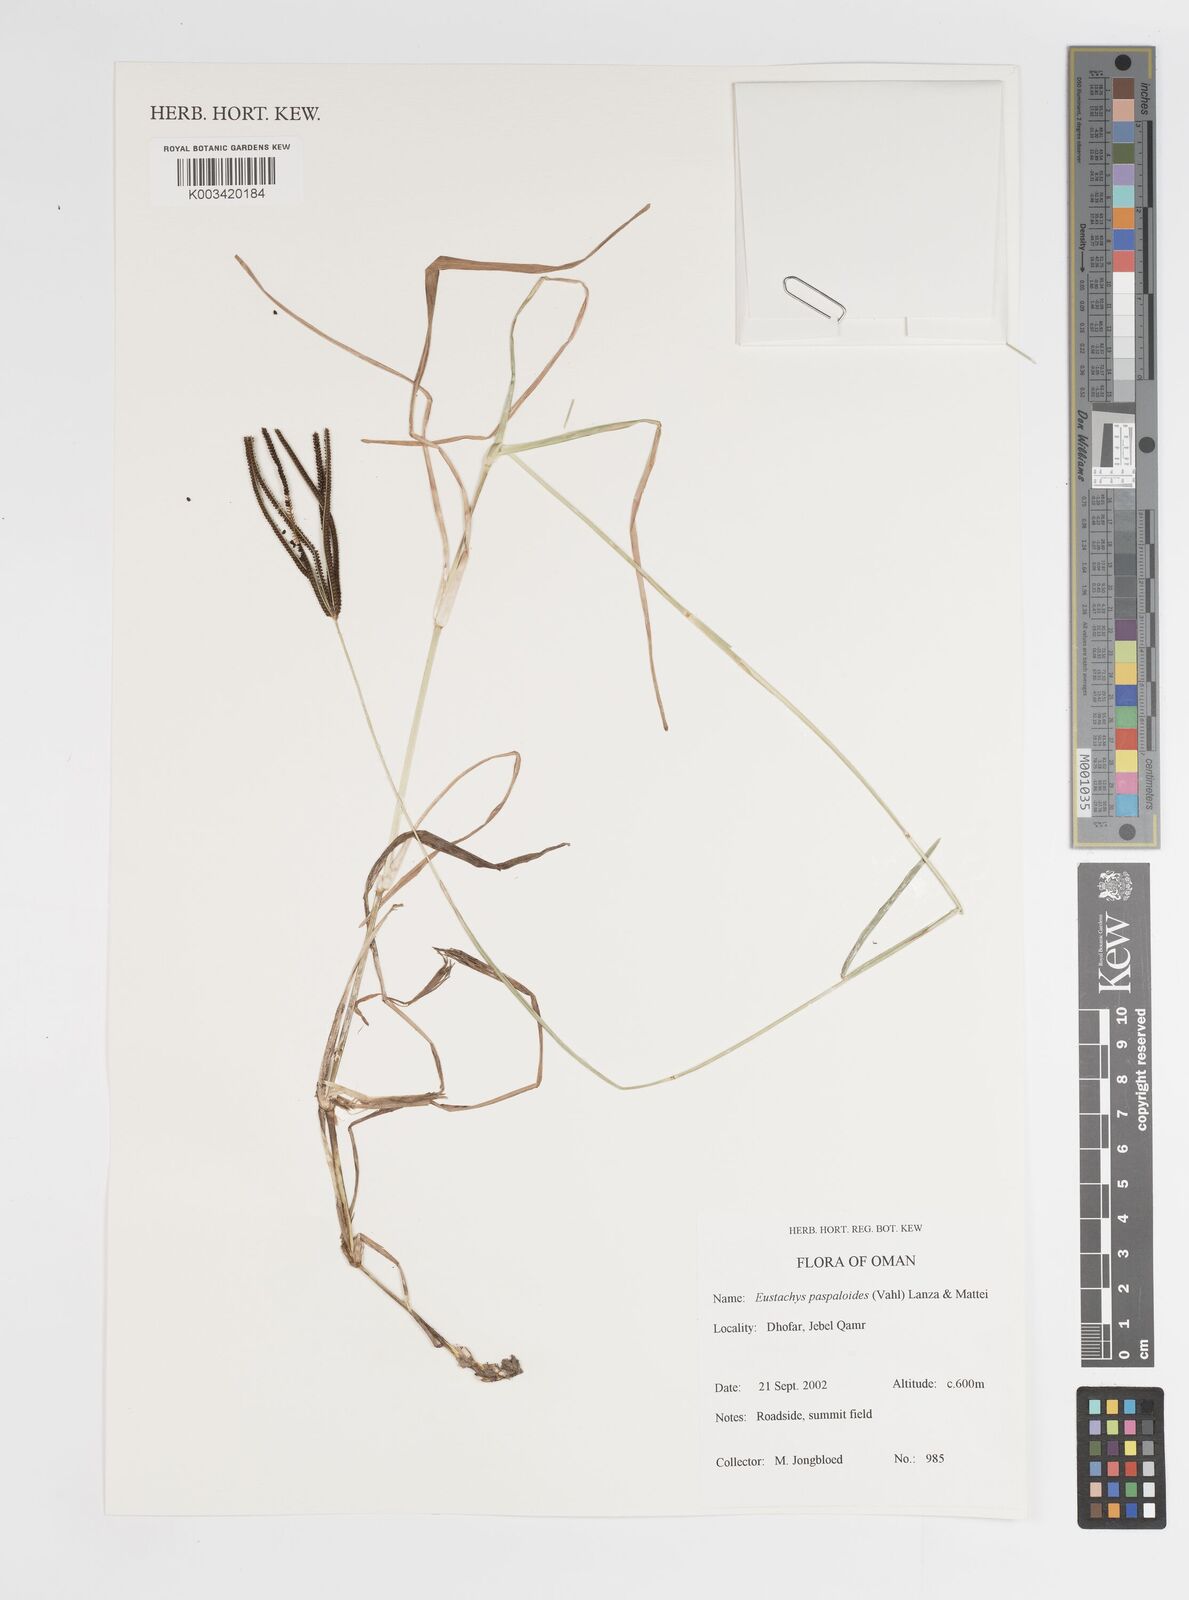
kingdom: Plantae
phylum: Tracheophyta
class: Liliopsida
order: Poales
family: Poaceae
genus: Eustachys
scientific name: Eustachys paspaloides
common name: Caribbean fingergrass
